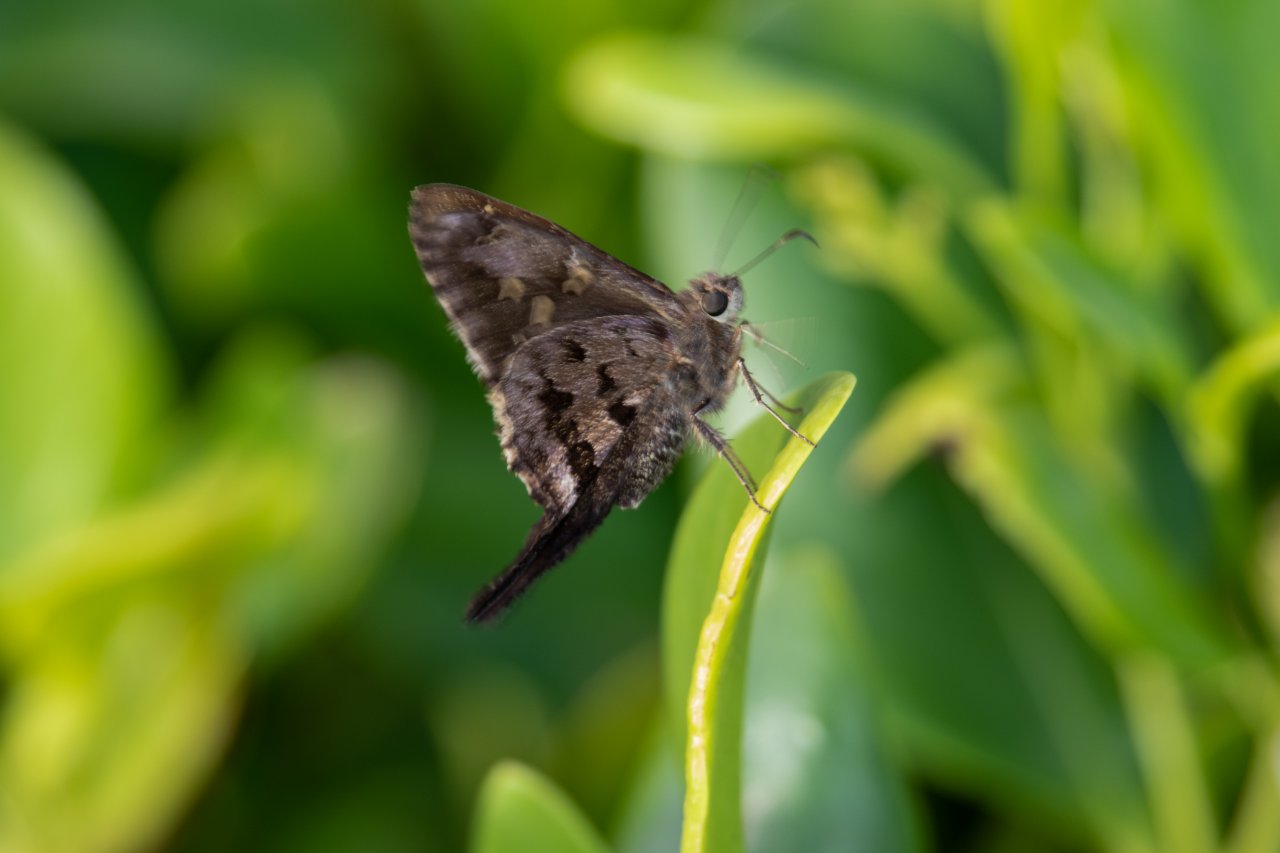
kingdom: Animalia
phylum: Arthropoda
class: Insecta
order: Lepidoptera
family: Hesperiidae
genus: Urbanus
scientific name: Urbanus dorantes
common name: Dorantes Longtail
